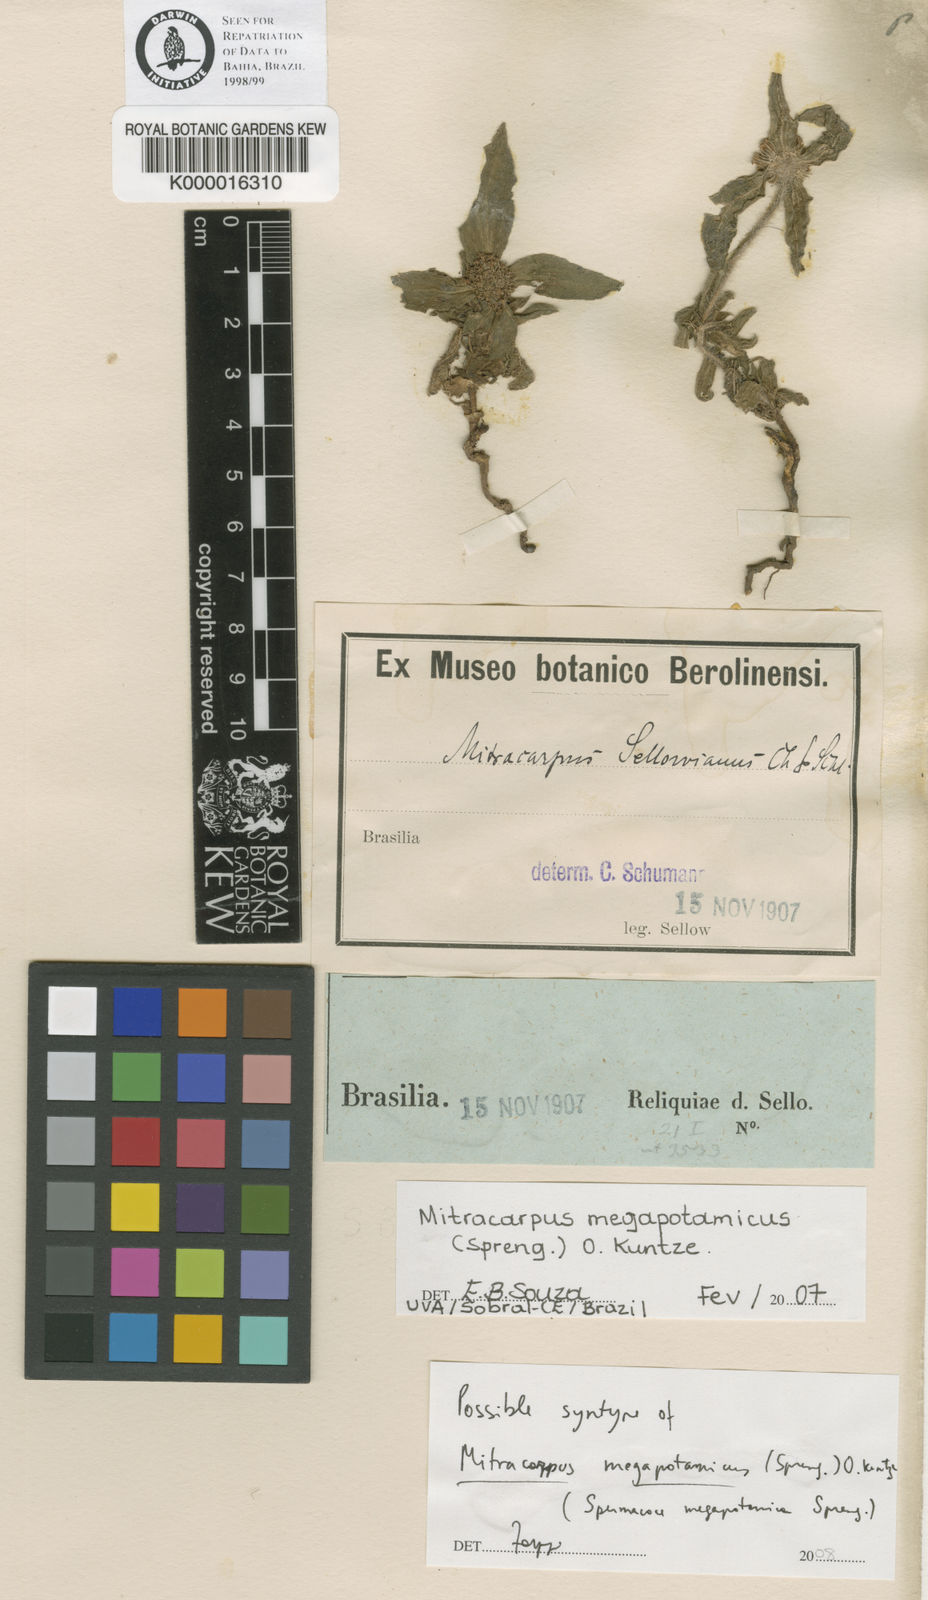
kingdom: Plantae
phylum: Tracheophyta
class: Magnoliopsida
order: Gentianales
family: Rubiaceae
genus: Mitracarpus
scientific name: Mitracarpus megapotamicus
